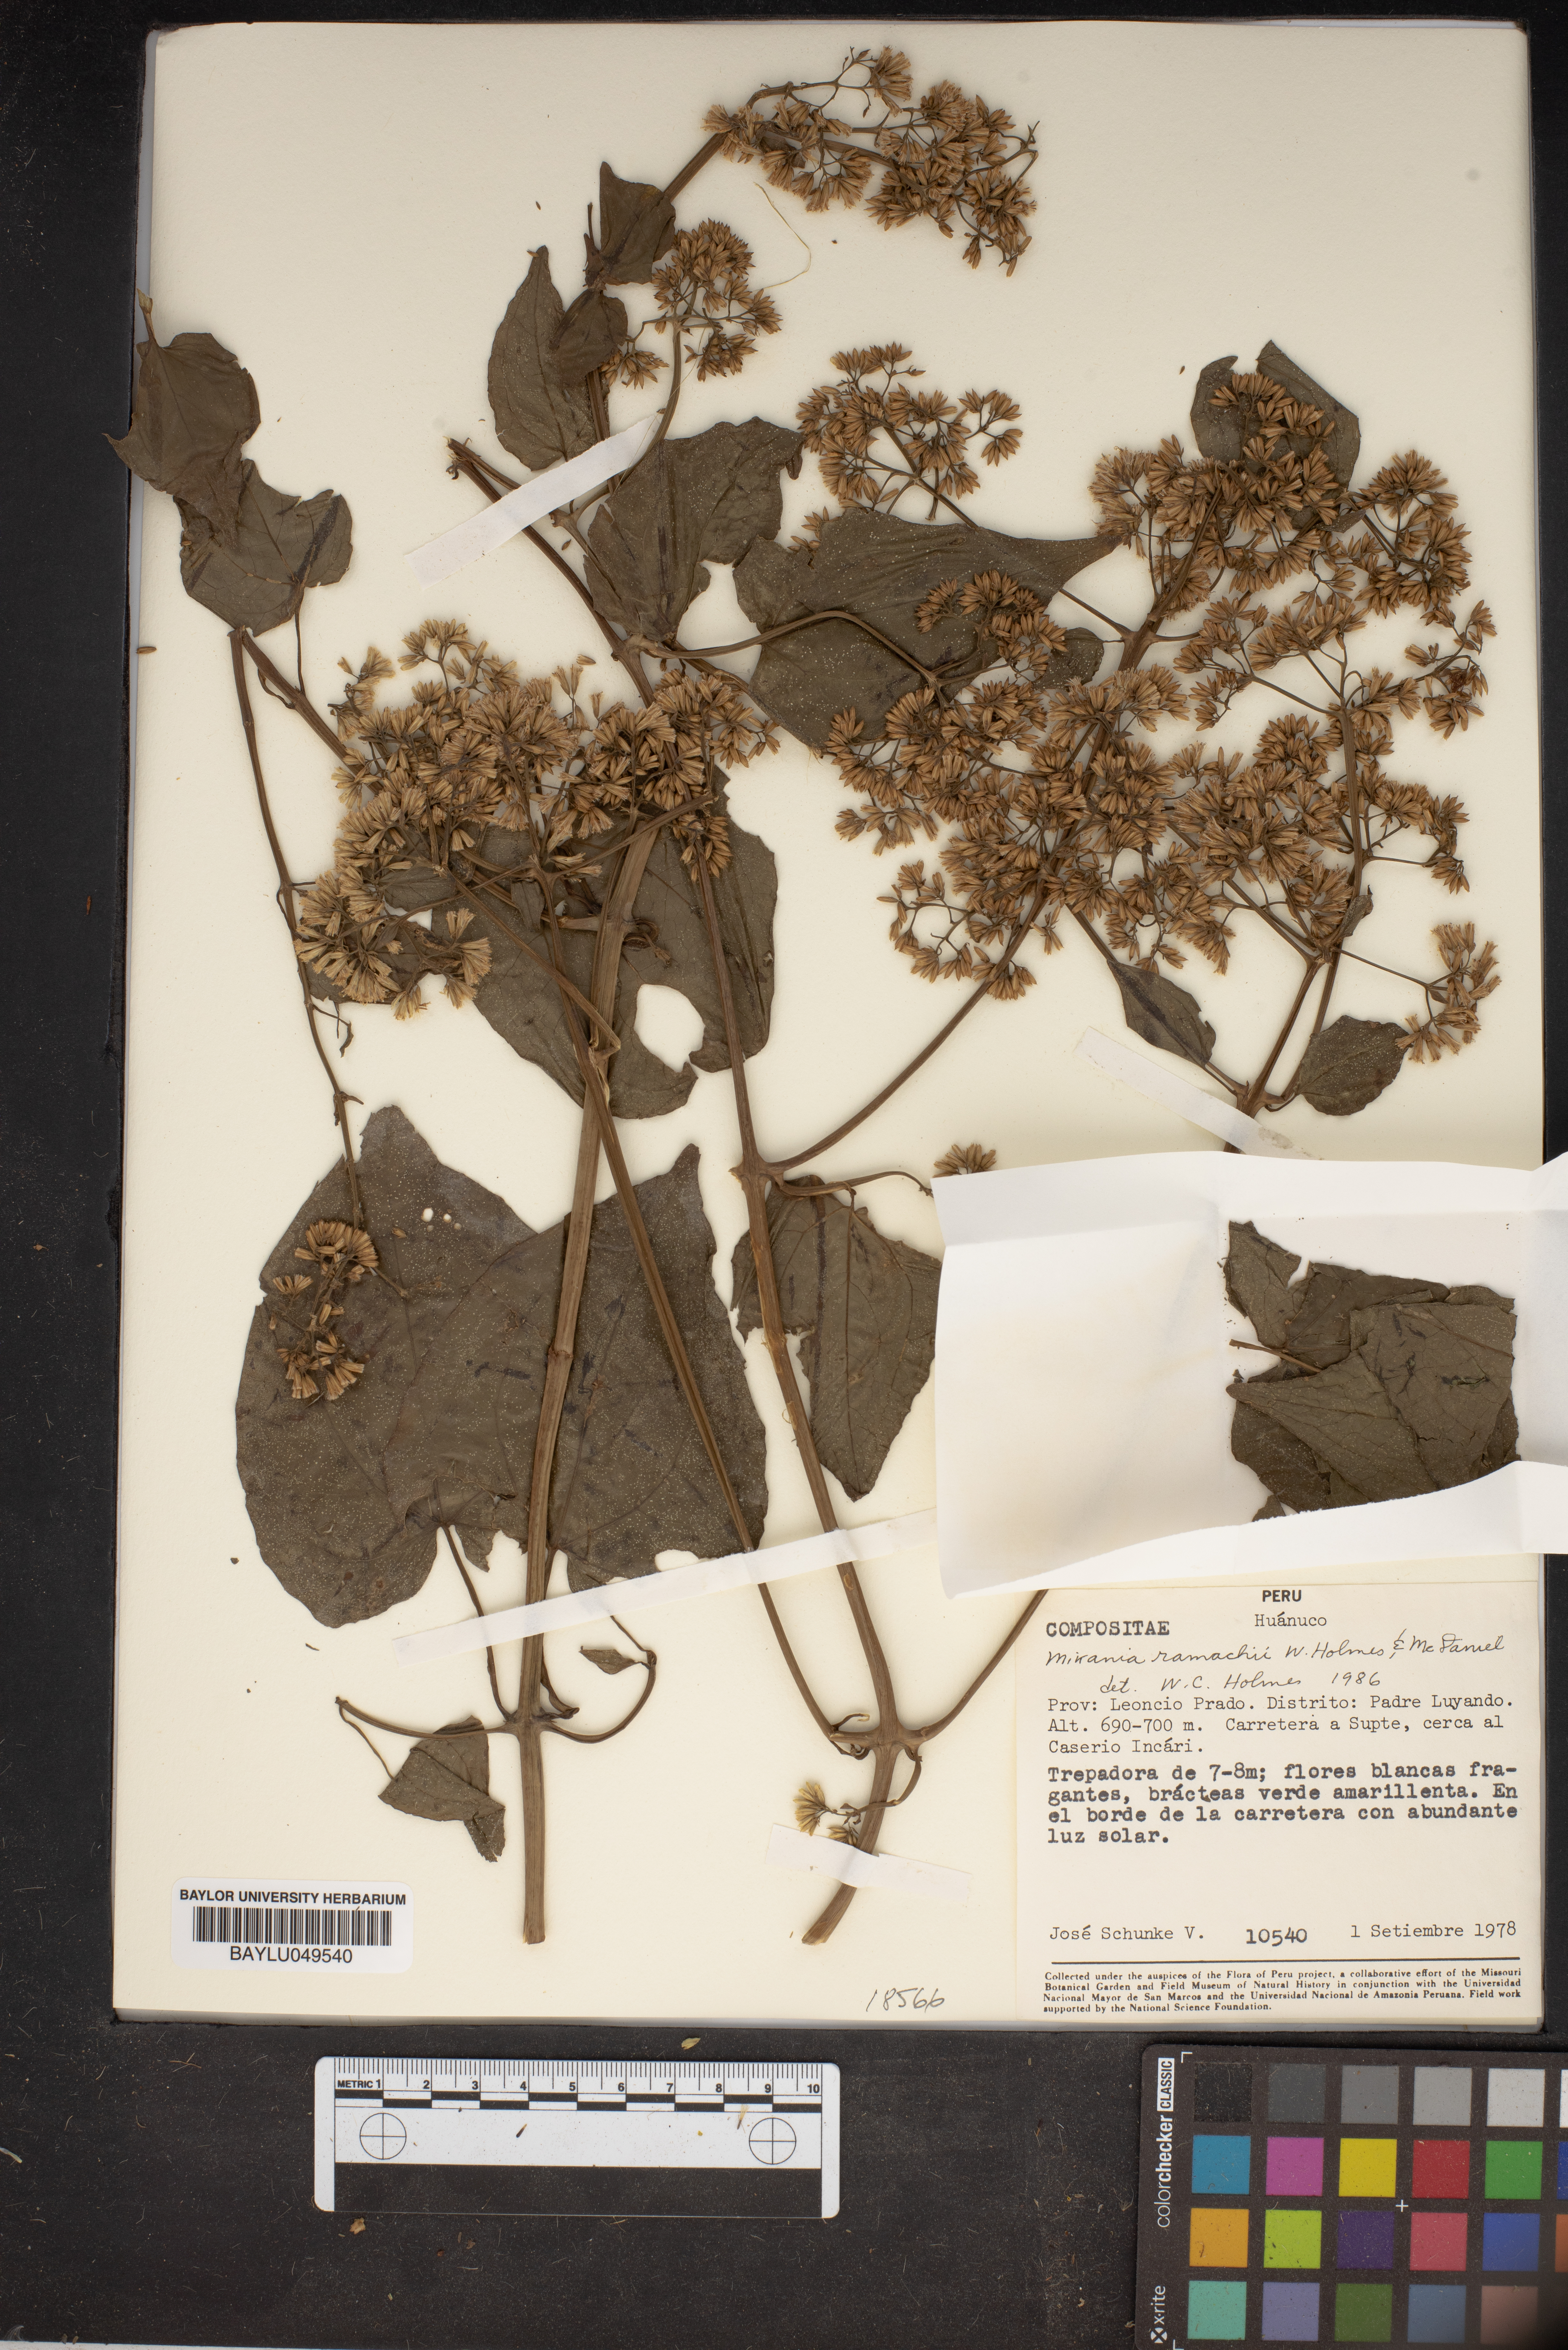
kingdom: Plantae
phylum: Tracheophyta
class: Magnoliopsida
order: Asterales
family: Asteraceae
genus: Mikania
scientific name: Mikania rimachii
